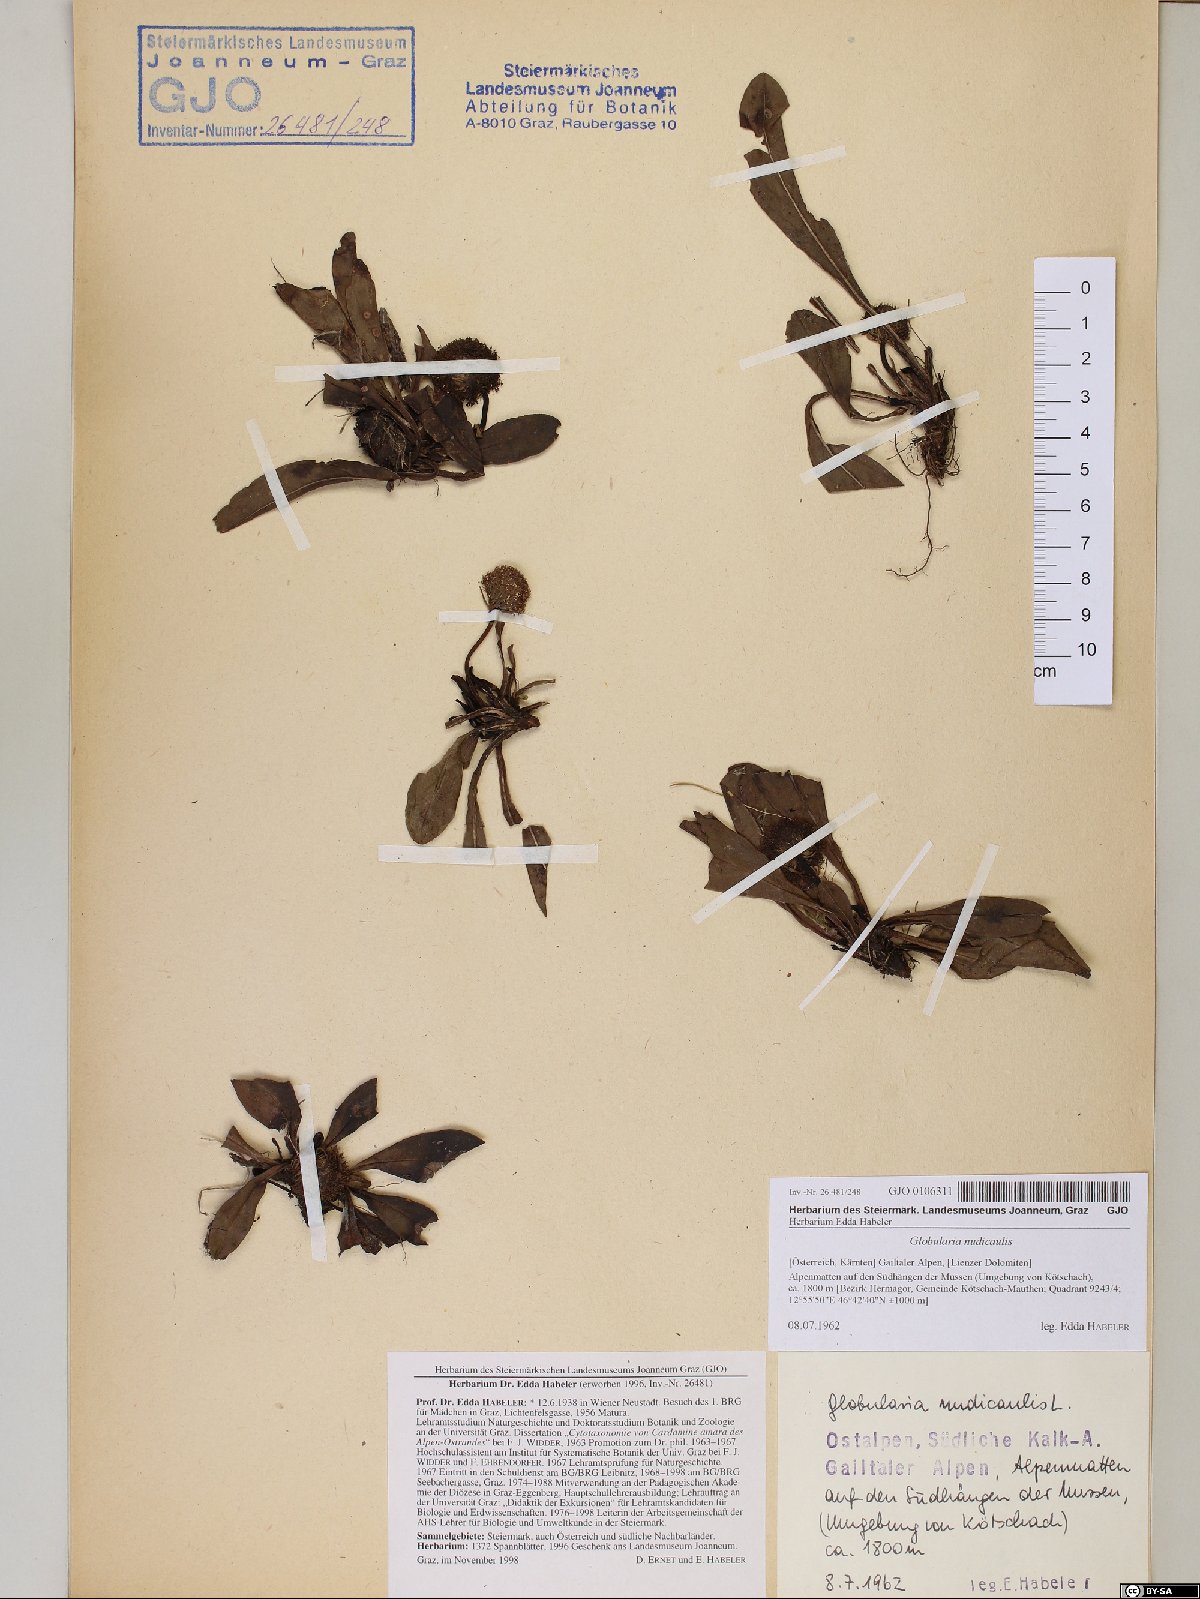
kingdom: Plantae
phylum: Tracheophyta
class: Magnoliopsida
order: Lamiales
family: Plantaginaceae
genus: Globularia
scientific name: Globularia nudicaulis
